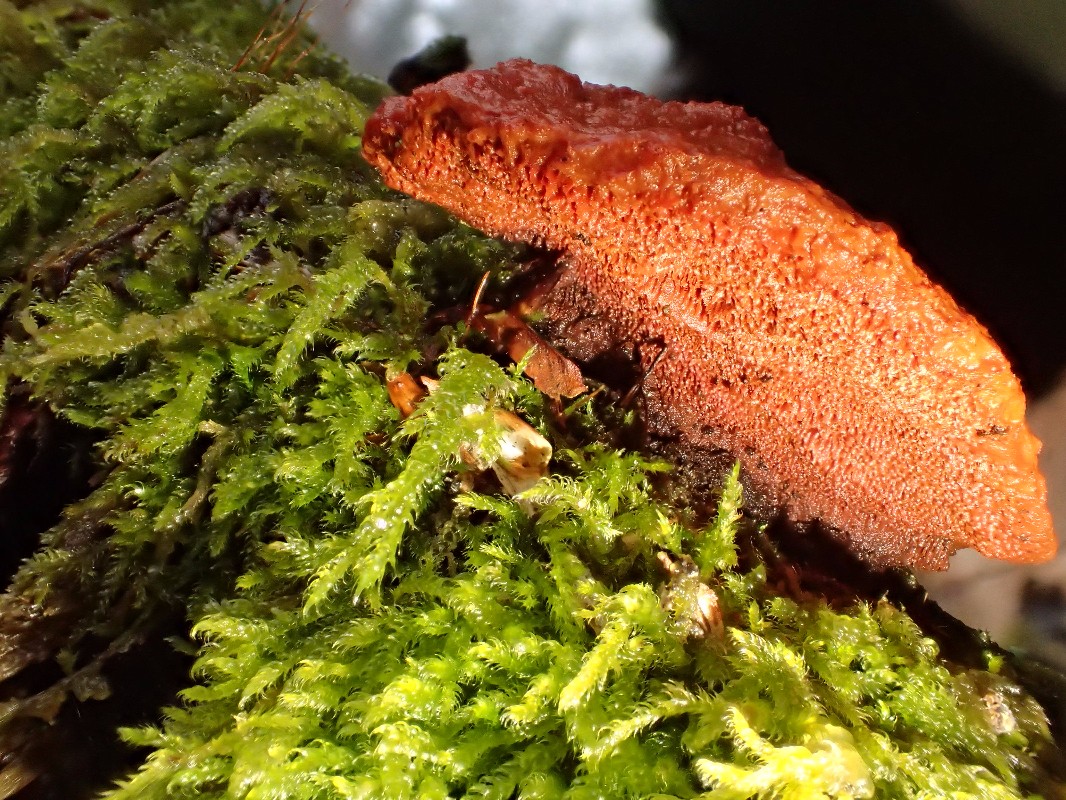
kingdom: Fungi
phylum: Basidiomycota
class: Agaricomycetes
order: Polyporales
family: Polyporaceae
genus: Trametes
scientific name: Trametes cinnabarina
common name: cinnoberporesvamp
